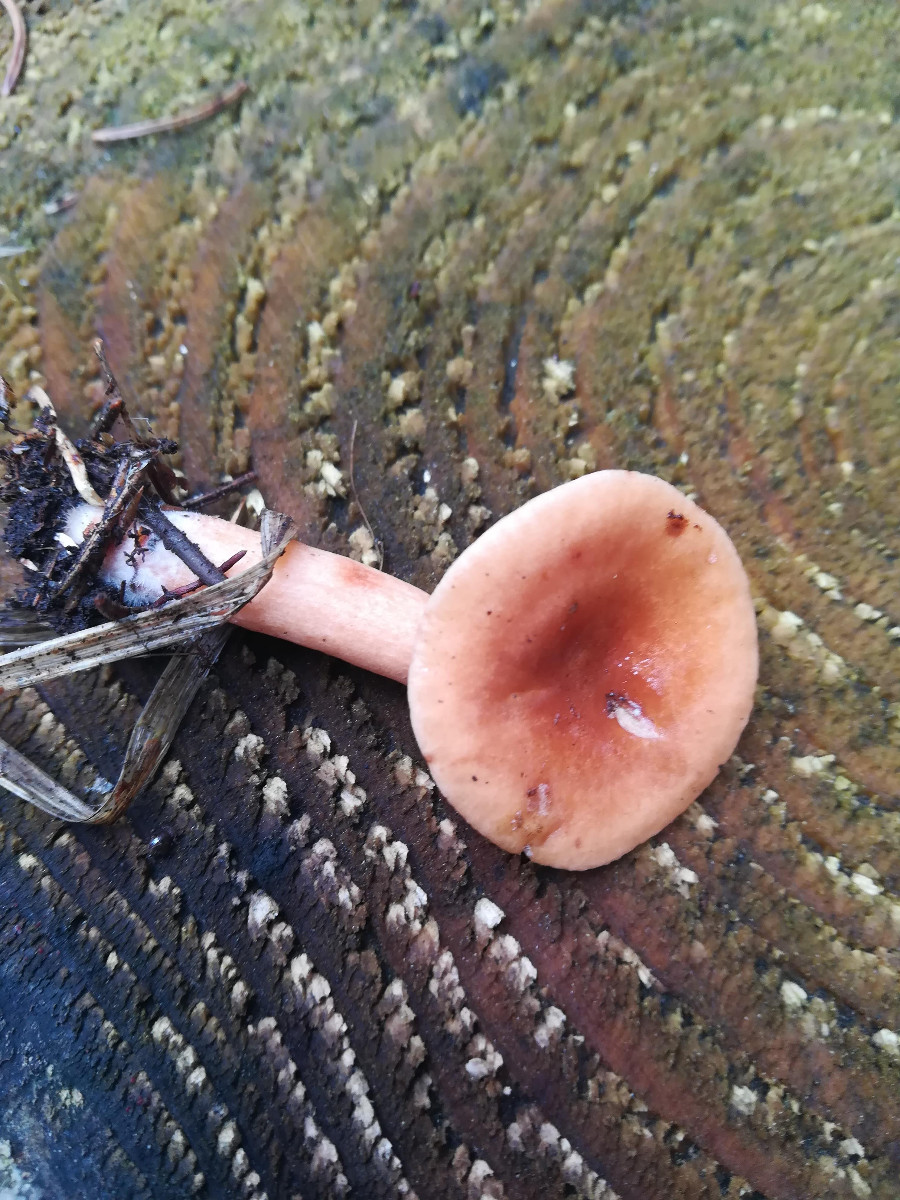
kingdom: Fungi
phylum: Basidiomycota
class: Agaricomycetes
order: Russulales
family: Russulaceae
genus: Lactarius
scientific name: Lactarius tabidus
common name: rynket mælkehat
